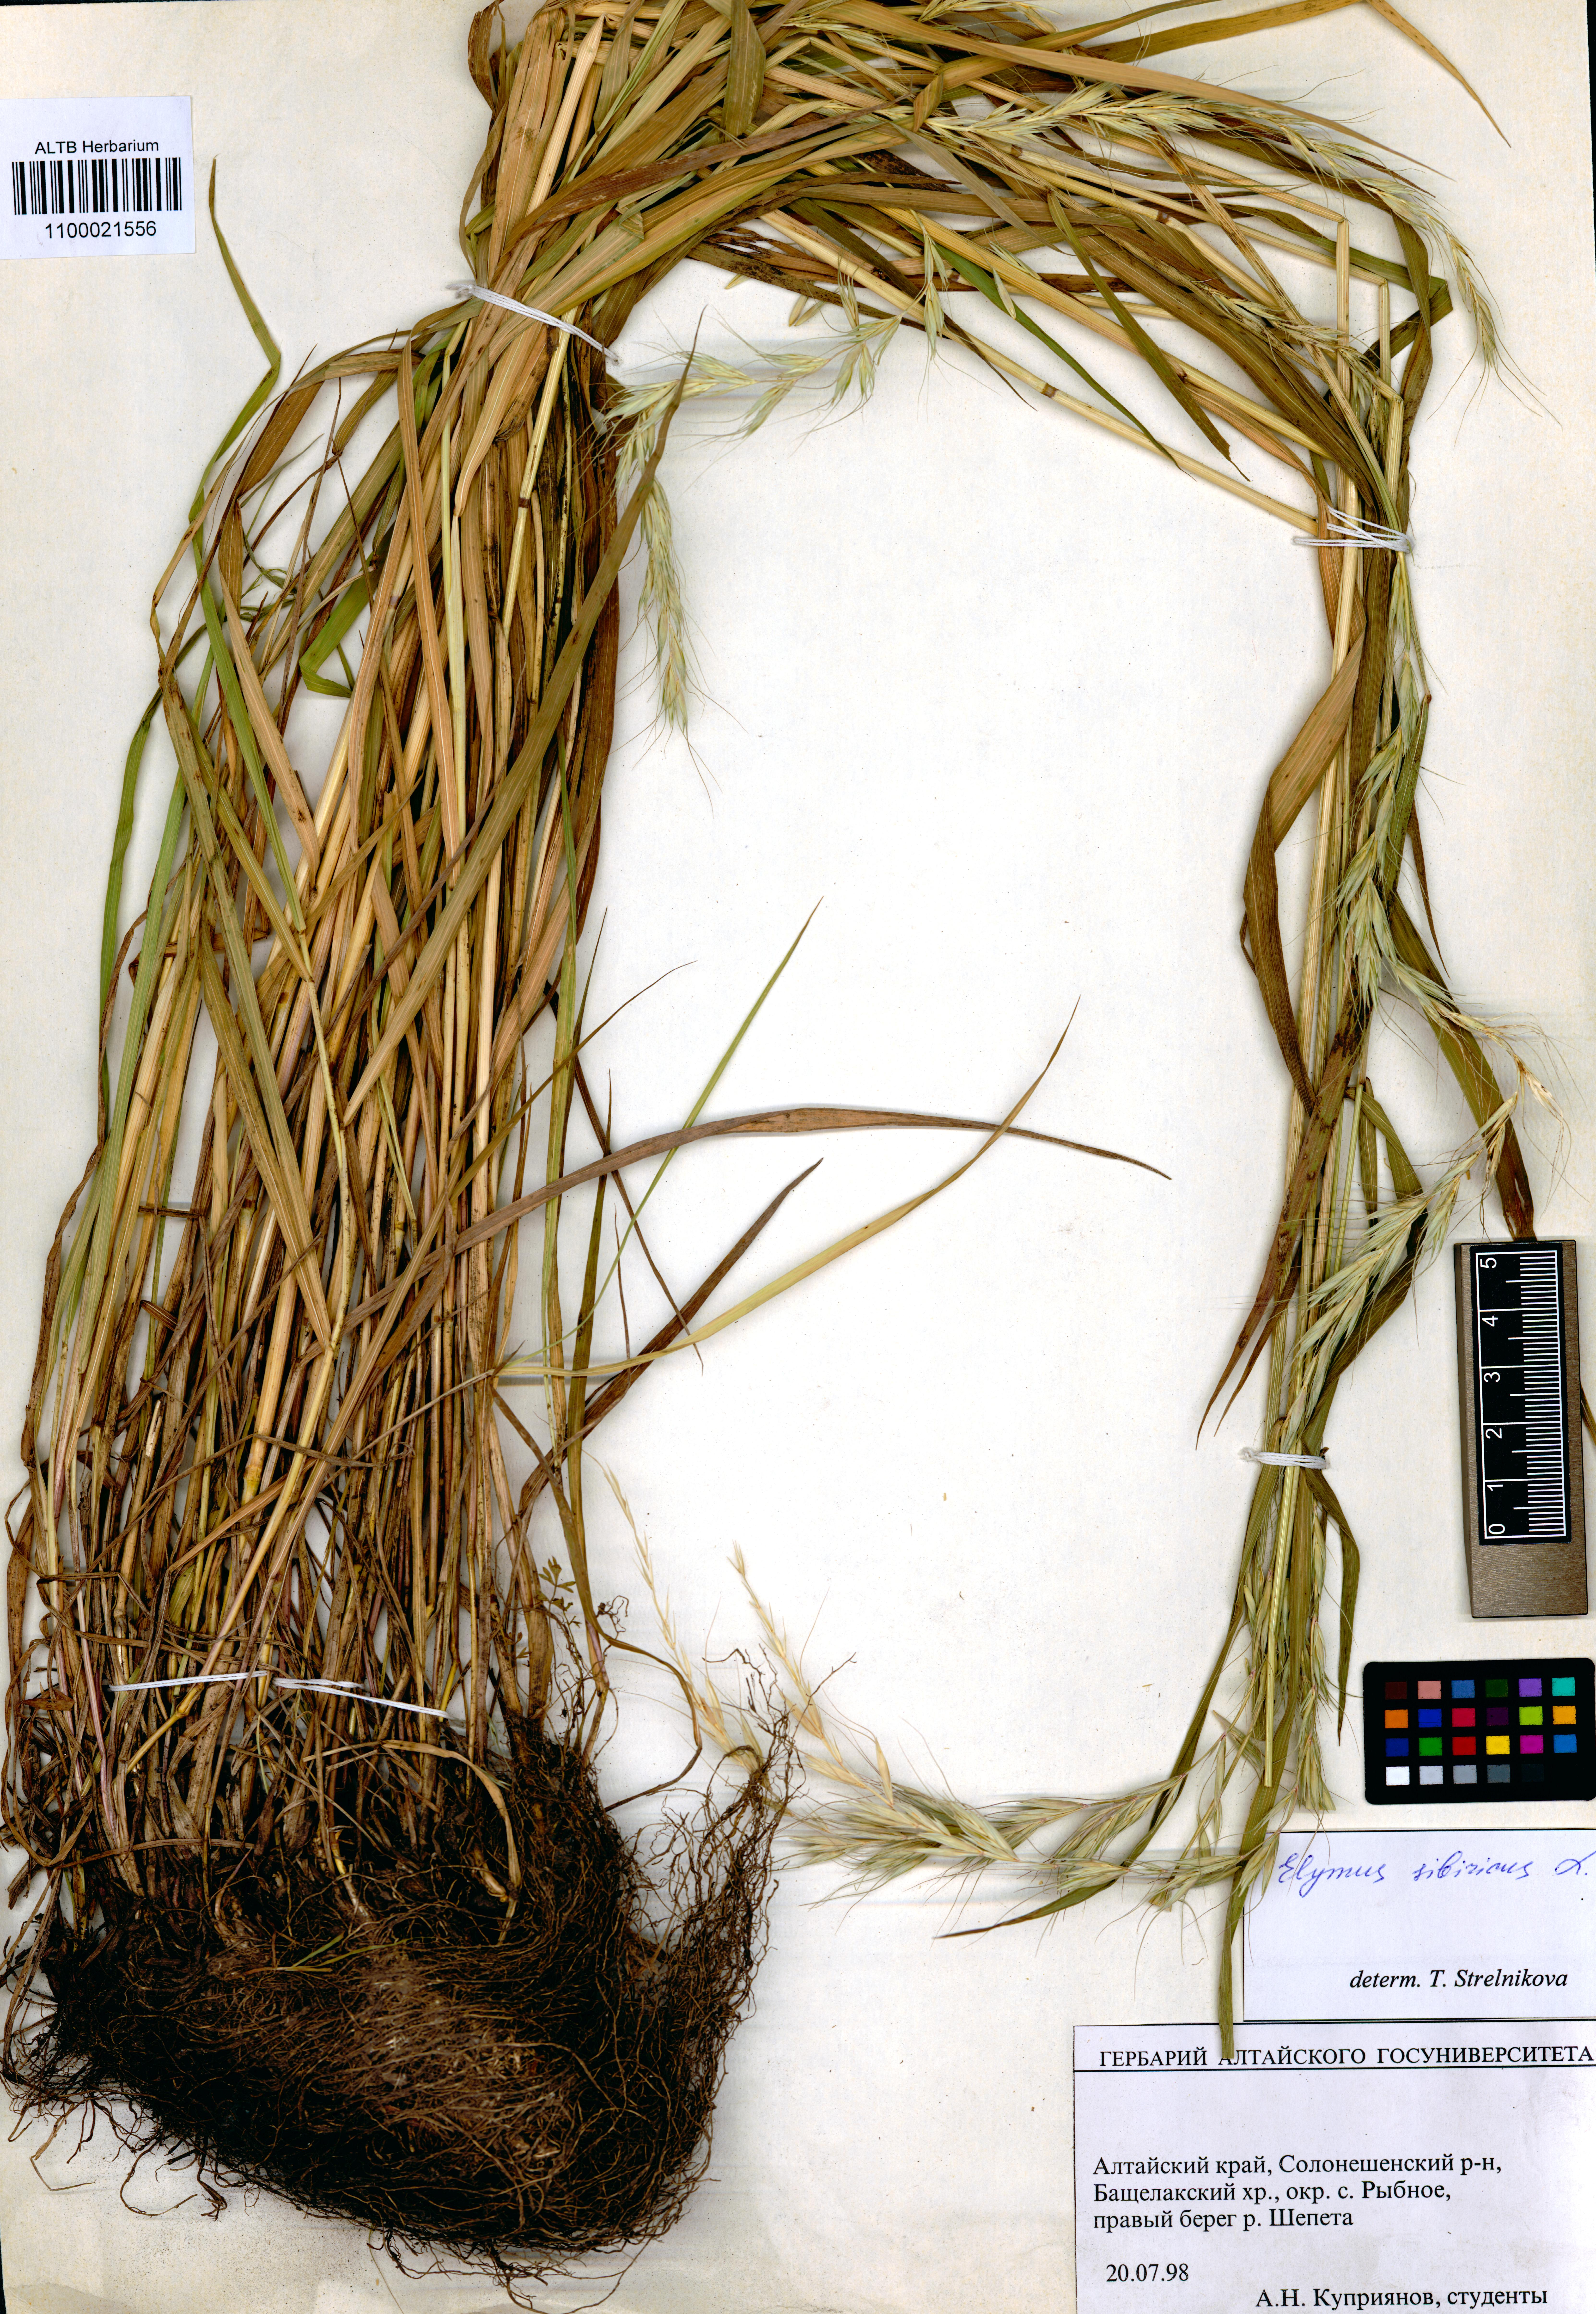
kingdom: Plantae
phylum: Tracheophyta
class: Liliopsida
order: Poales
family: Poaceae
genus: Elymus
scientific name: Elymus sibiricus
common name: Siberian wildrye
